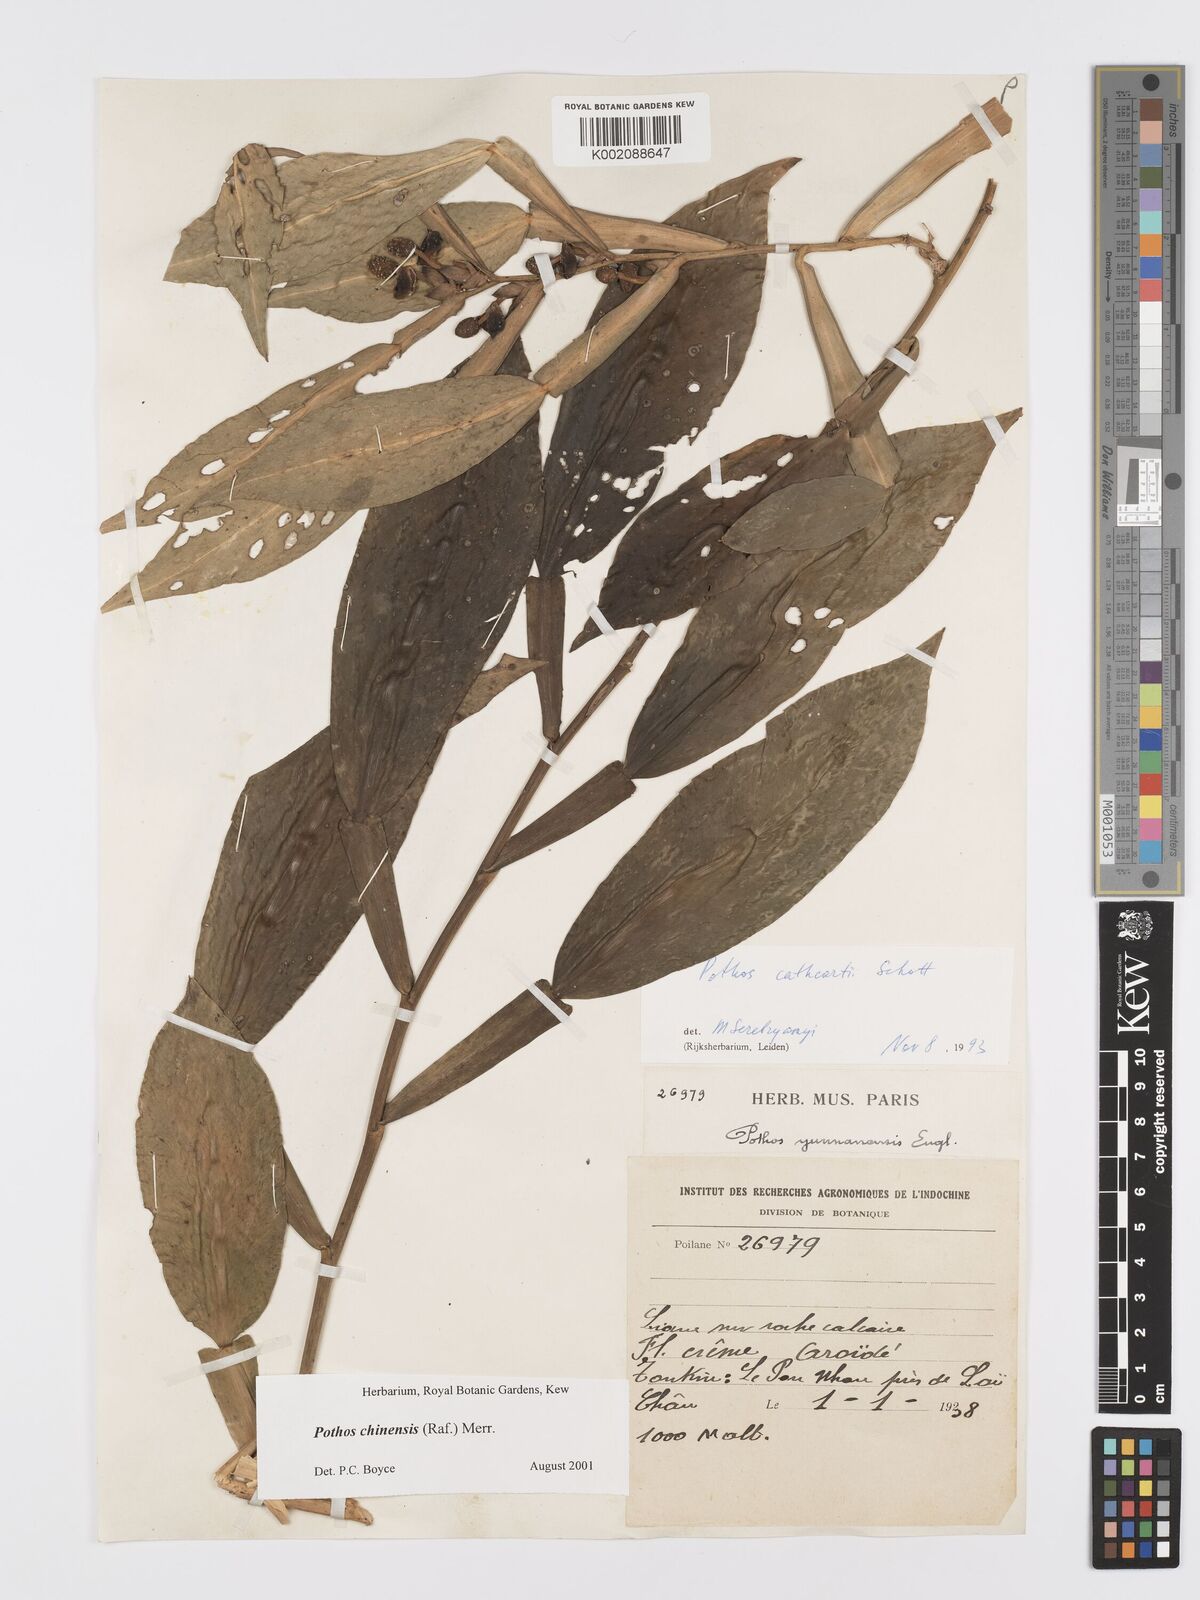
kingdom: Plantae
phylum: Tracheophyta
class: Liliopsida
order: Alismatales
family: Araceae
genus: Pothos
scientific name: Pothos chinensis
